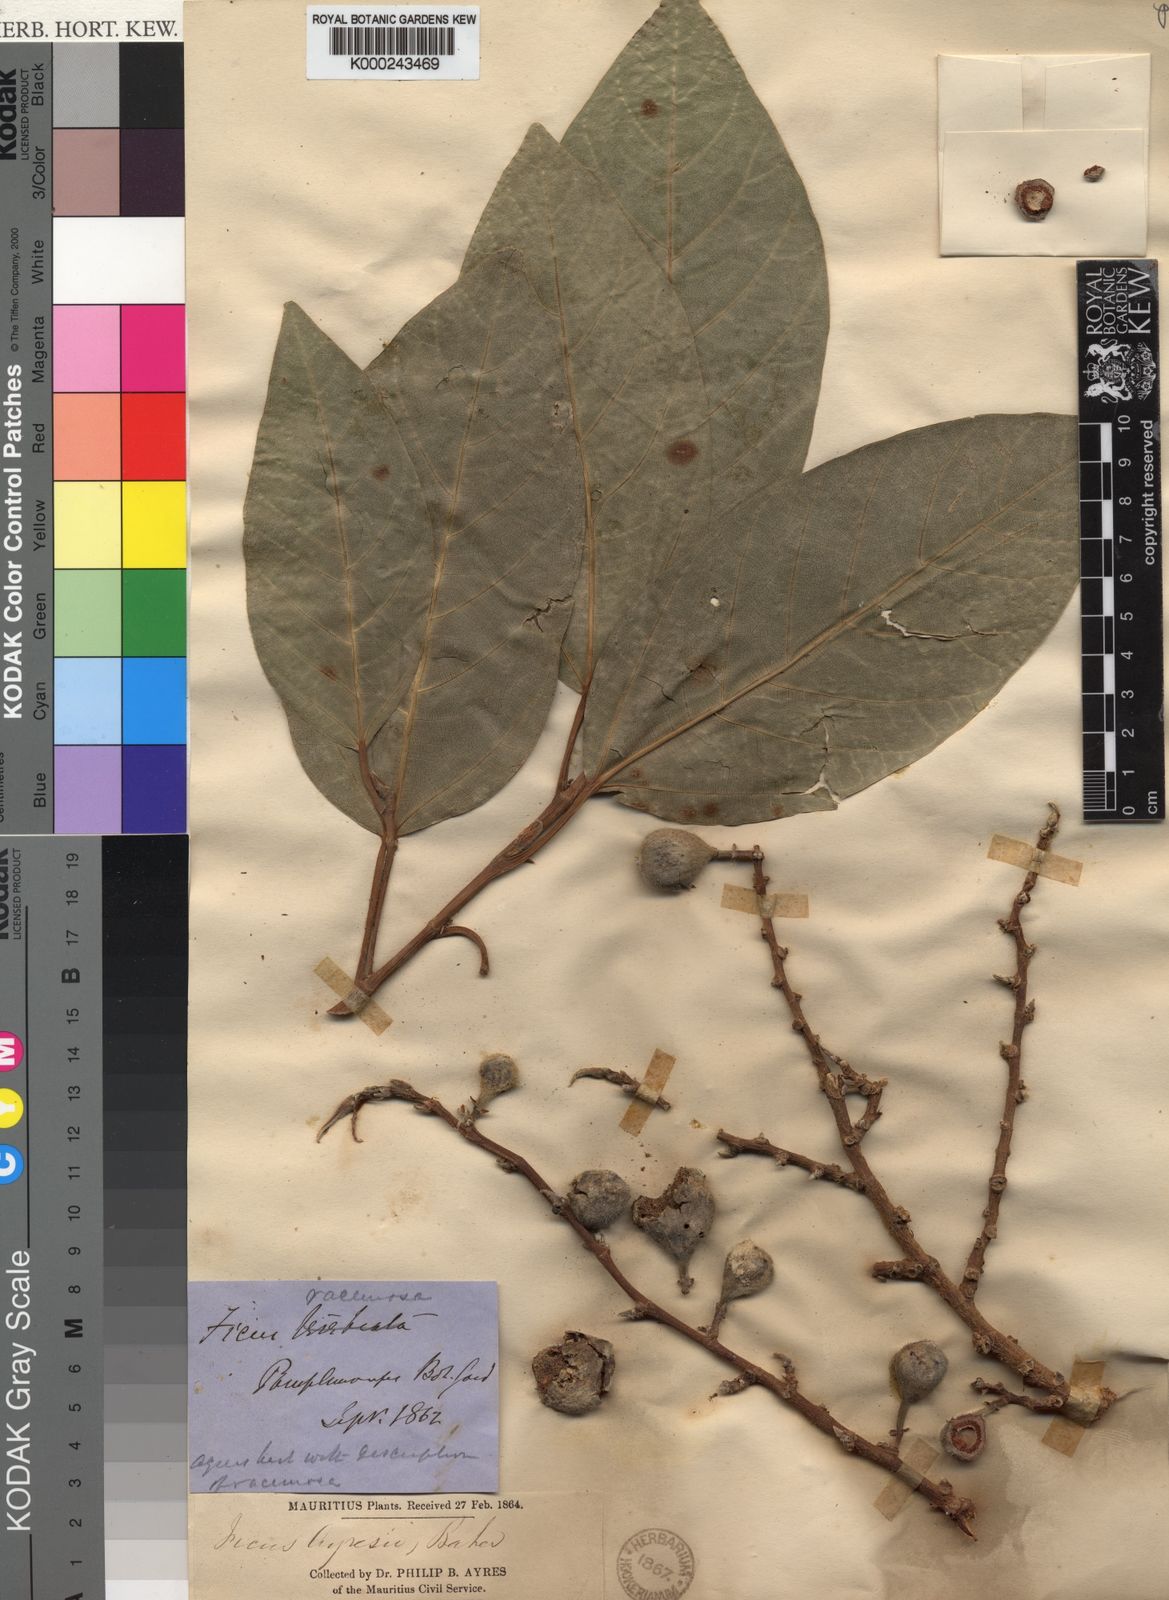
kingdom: Plantae
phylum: Tracheophyta
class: Magnoliopsida
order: Rosales
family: Moraceae
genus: Ficus
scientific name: Ficus mauritiana
